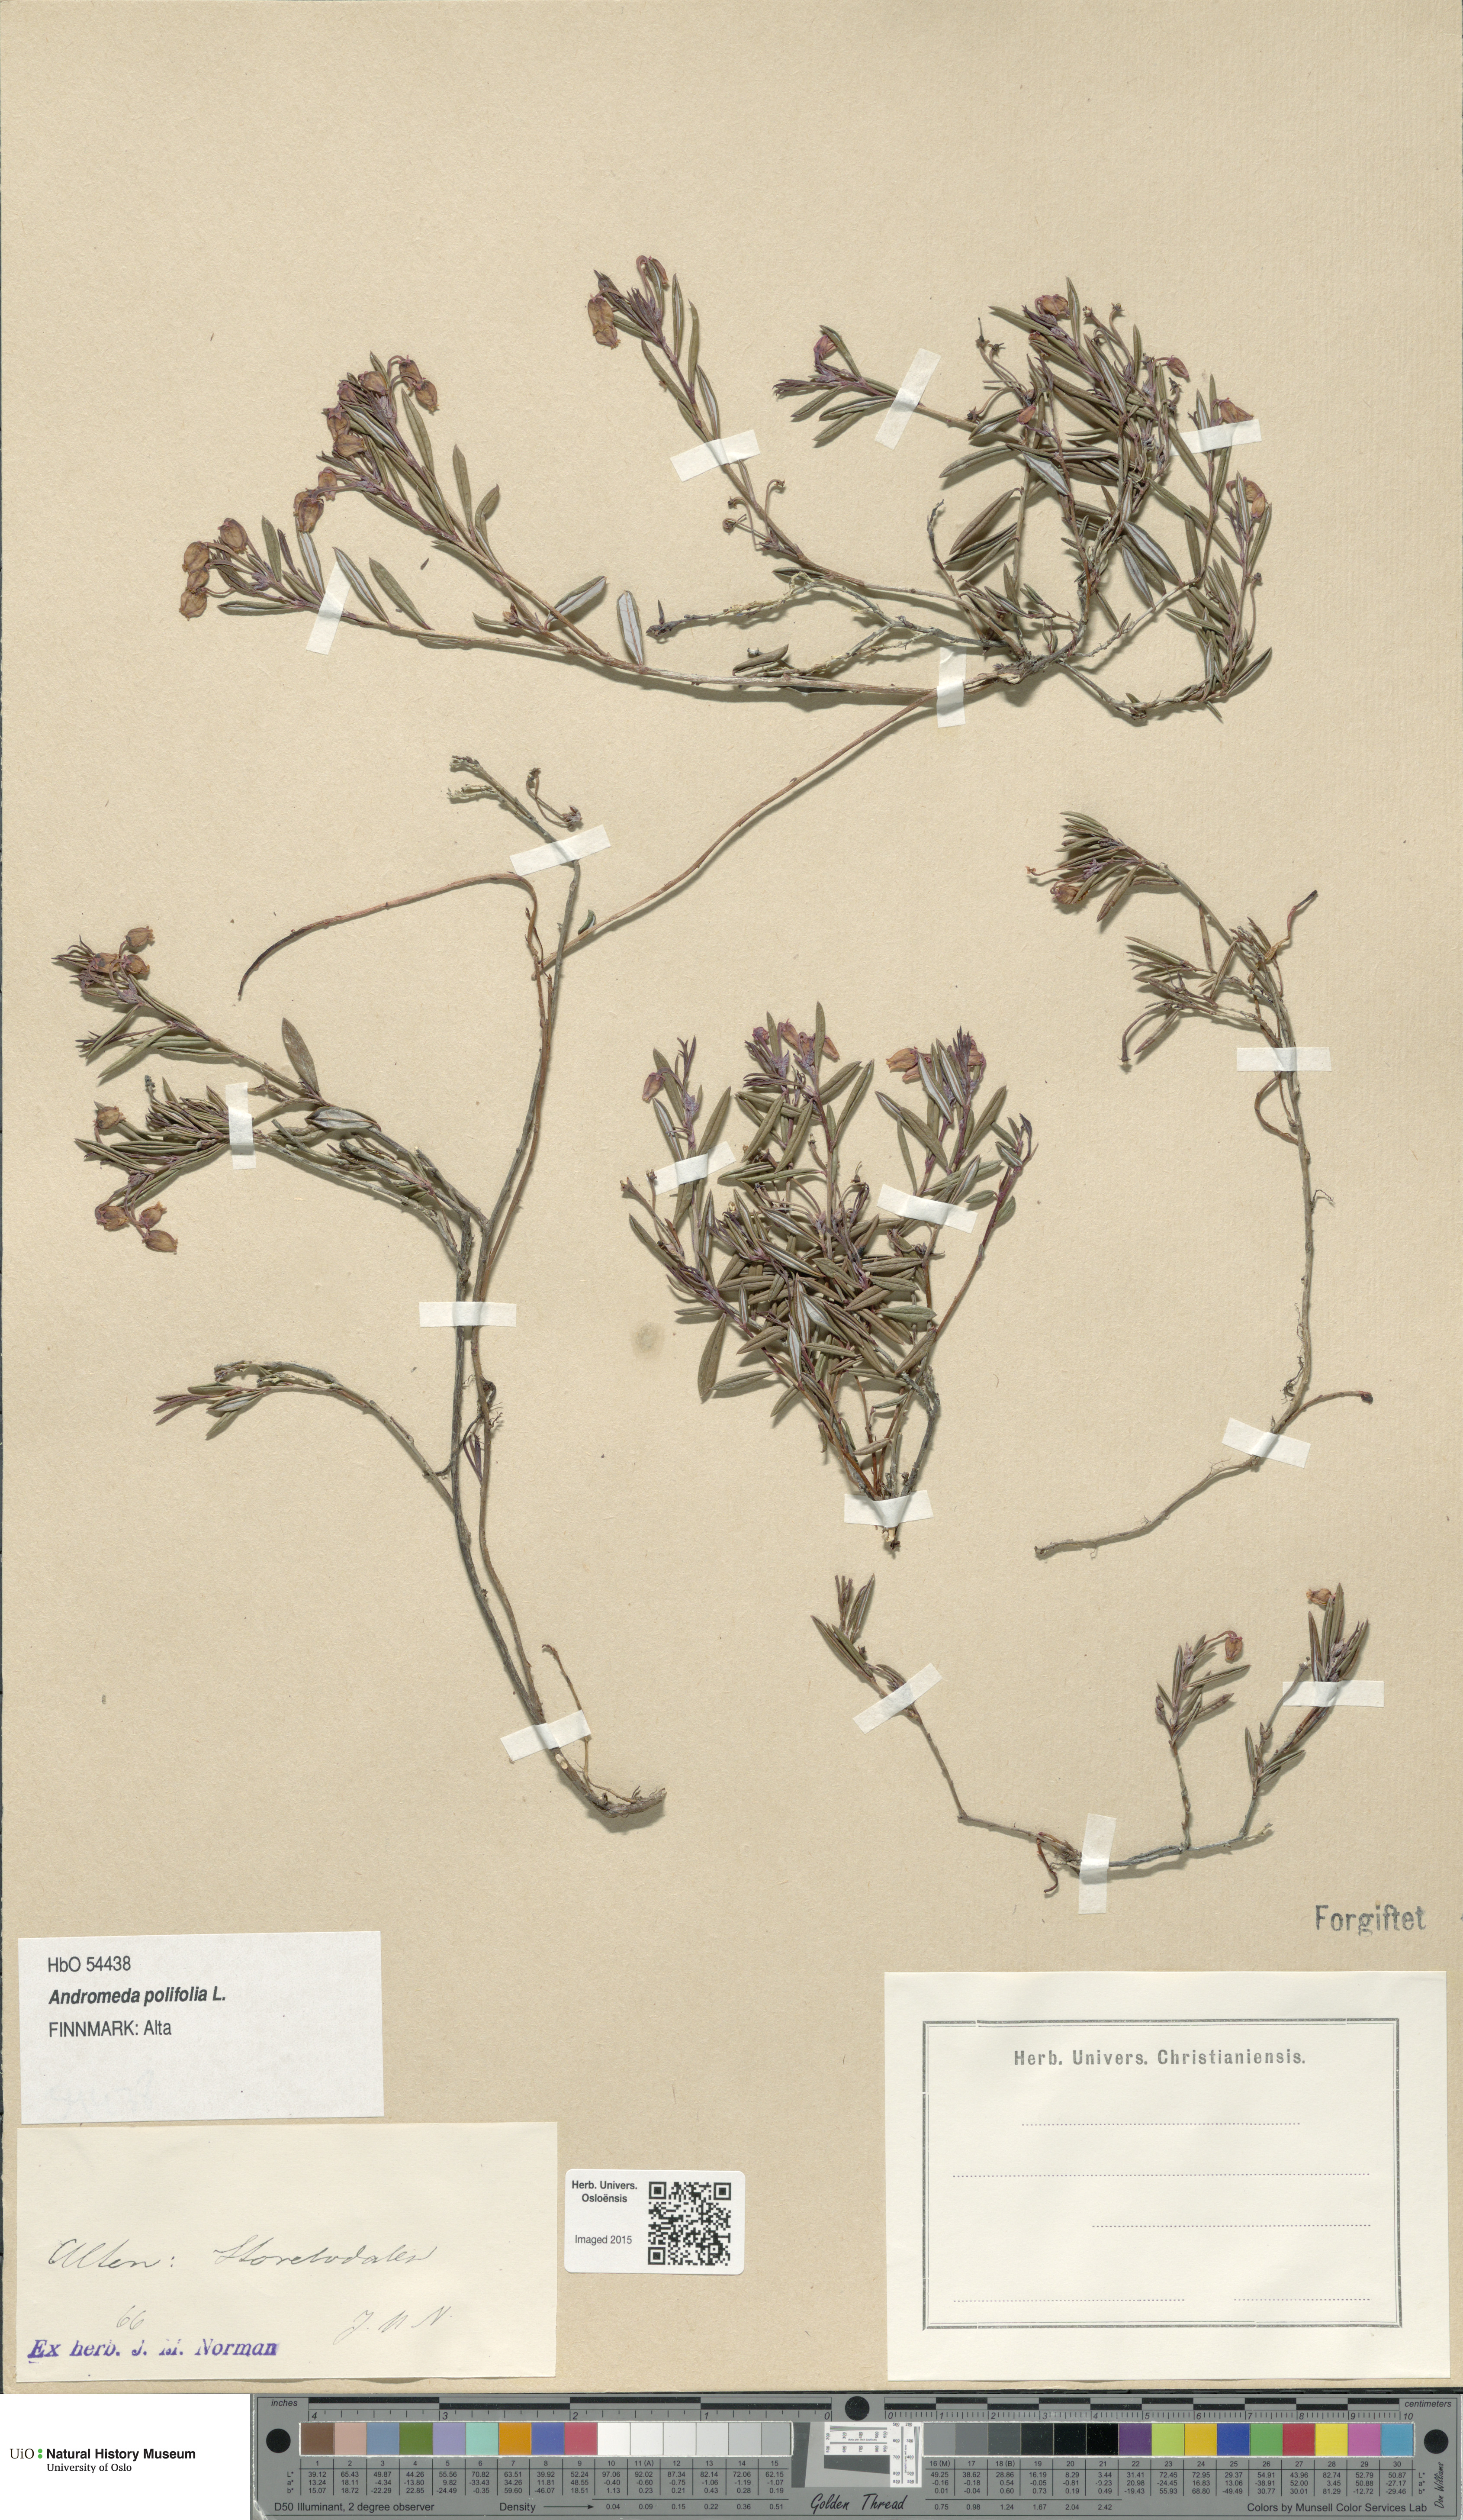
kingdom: Plantae
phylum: Tracheophyta
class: Magnoliopsida
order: Ericales
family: Ericaceae
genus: Andromeda
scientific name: Andromeda polifolia
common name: Bog-rosemary
